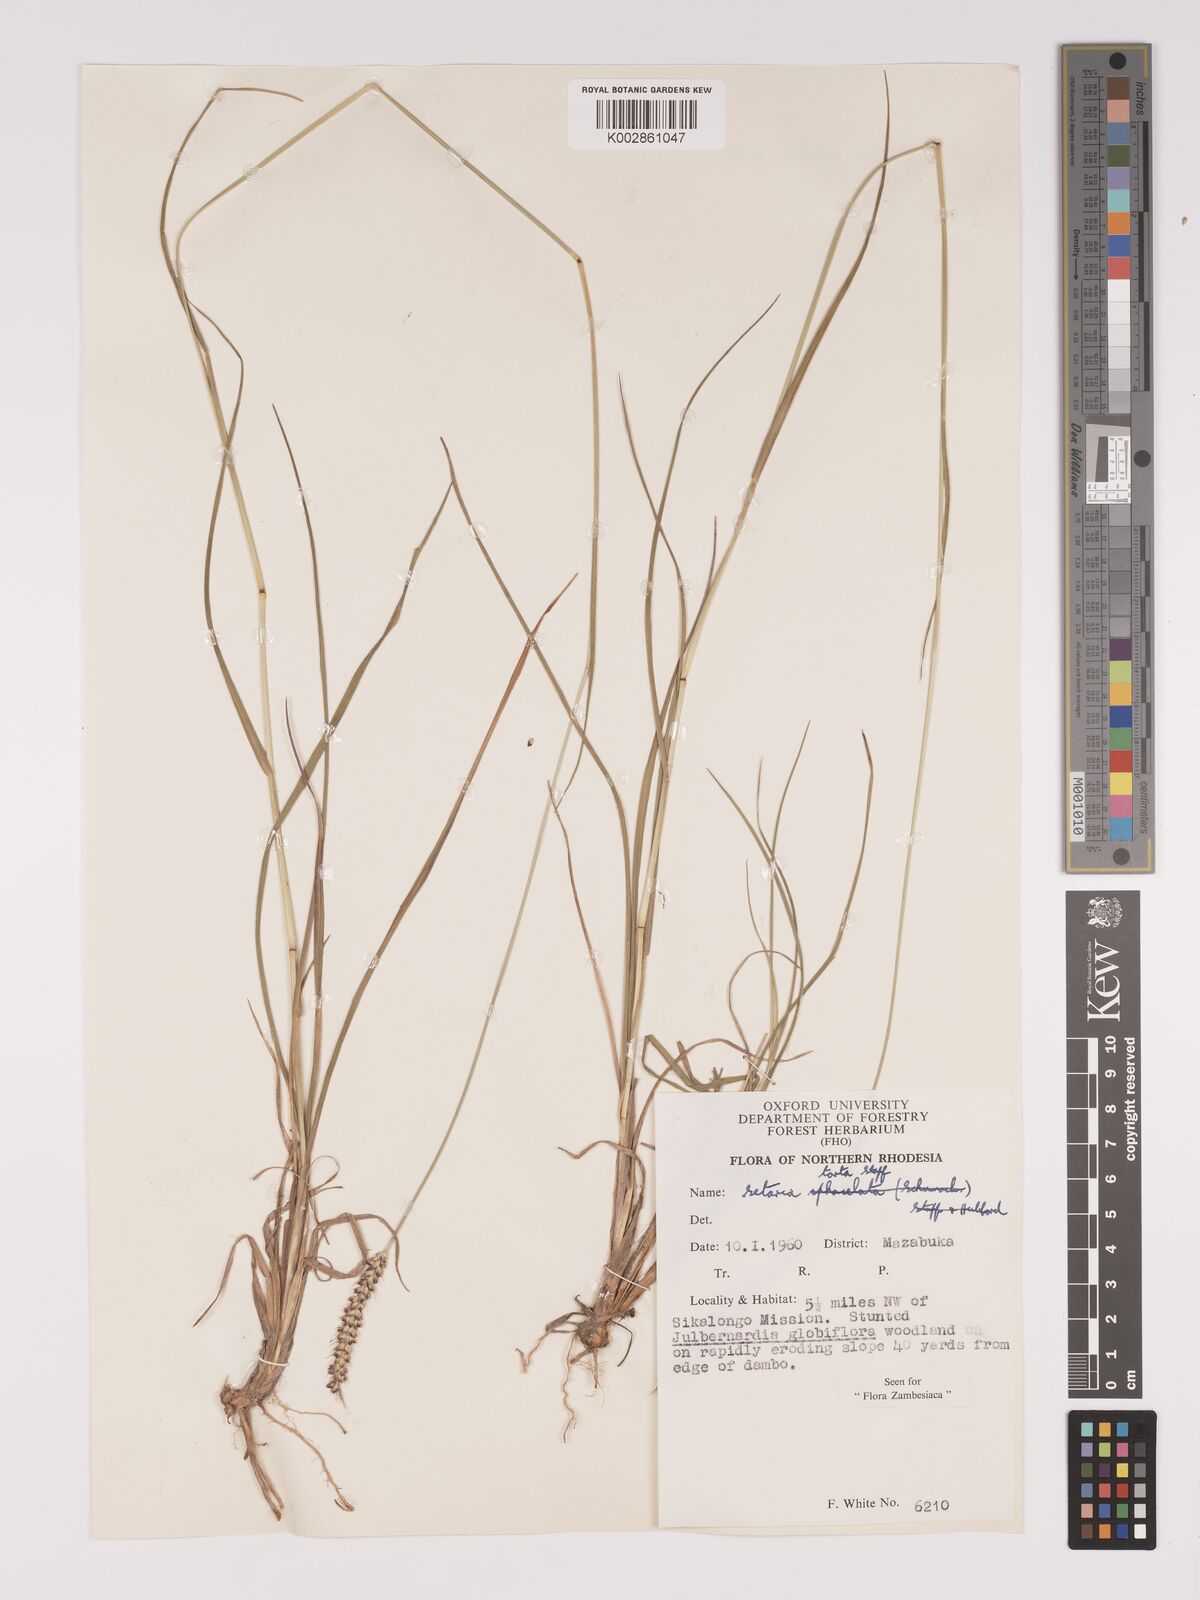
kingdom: Plantae
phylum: Tracheophyta
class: Liliopsida
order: Poales
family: Poaceae
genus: Setaria
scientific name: Setaria sphacelata
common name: African bristlegrass
